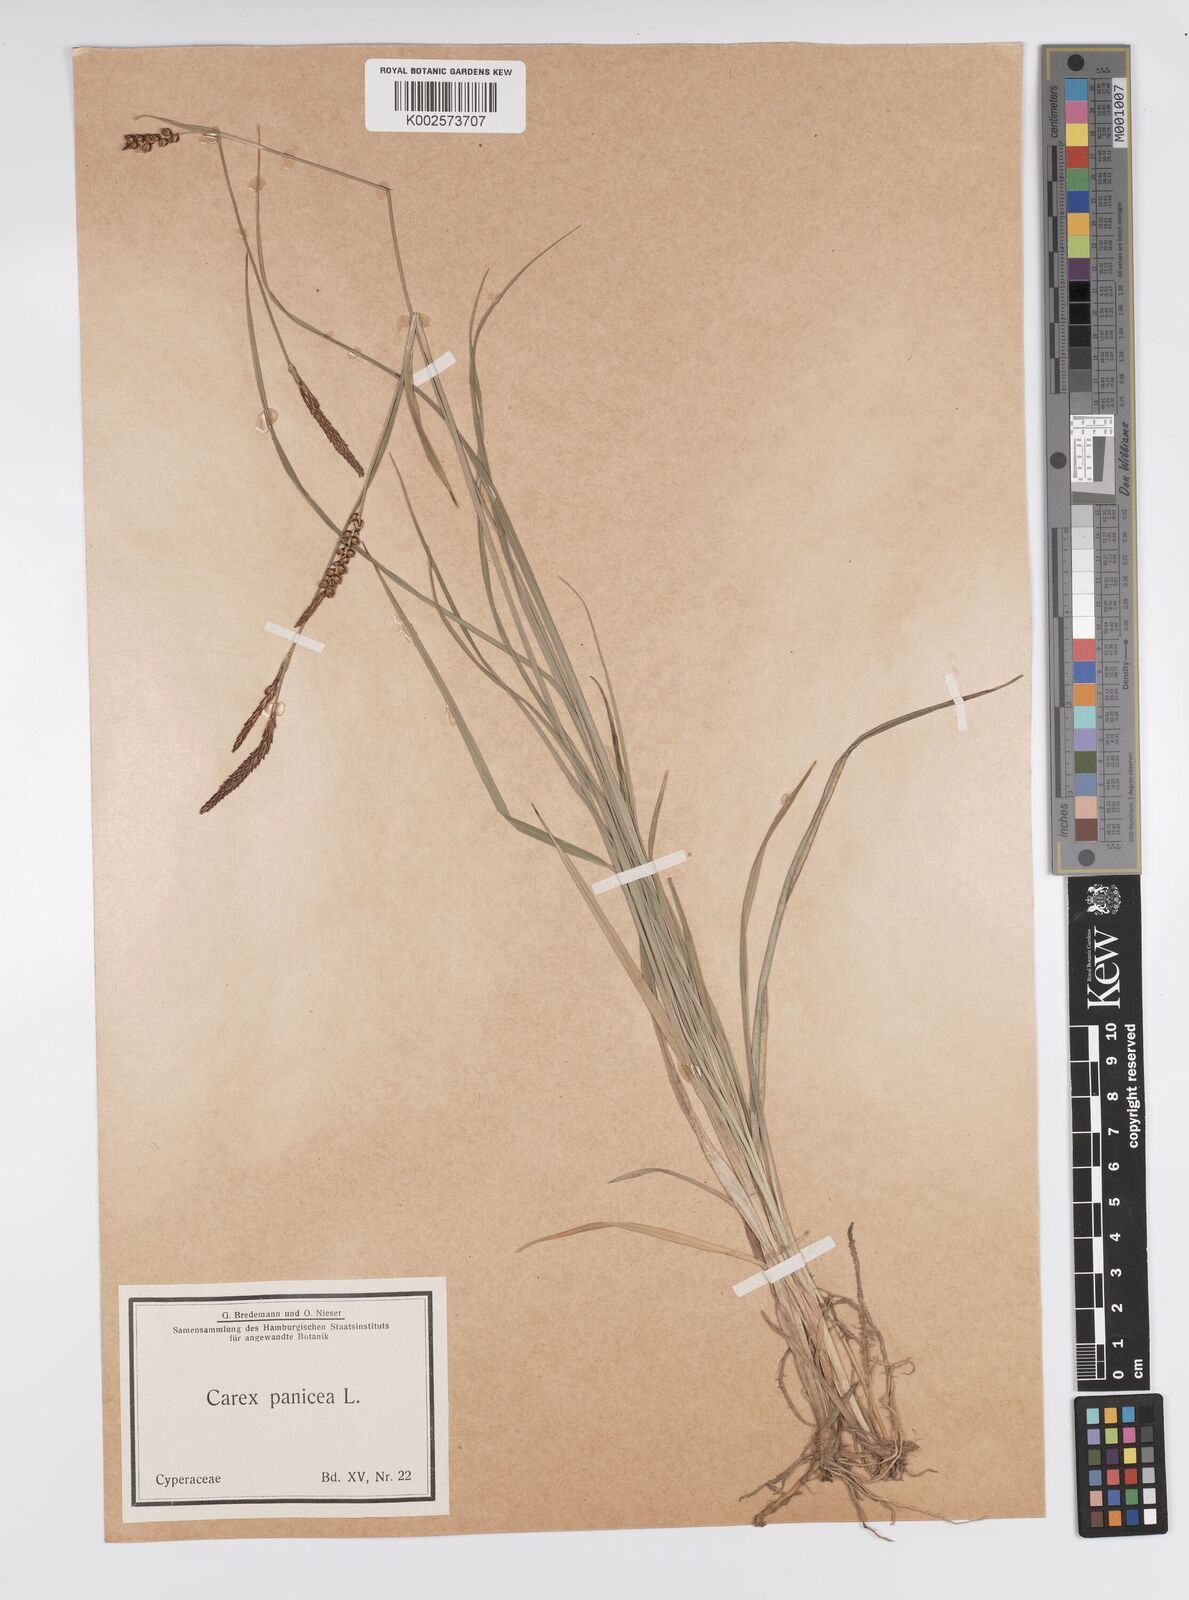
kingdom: Plantae
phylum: Tracheophyta
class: Liliopsida
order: Poales
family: Cyperaceae
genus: Carex
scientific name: Carex panicea
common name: Carnation sedge
